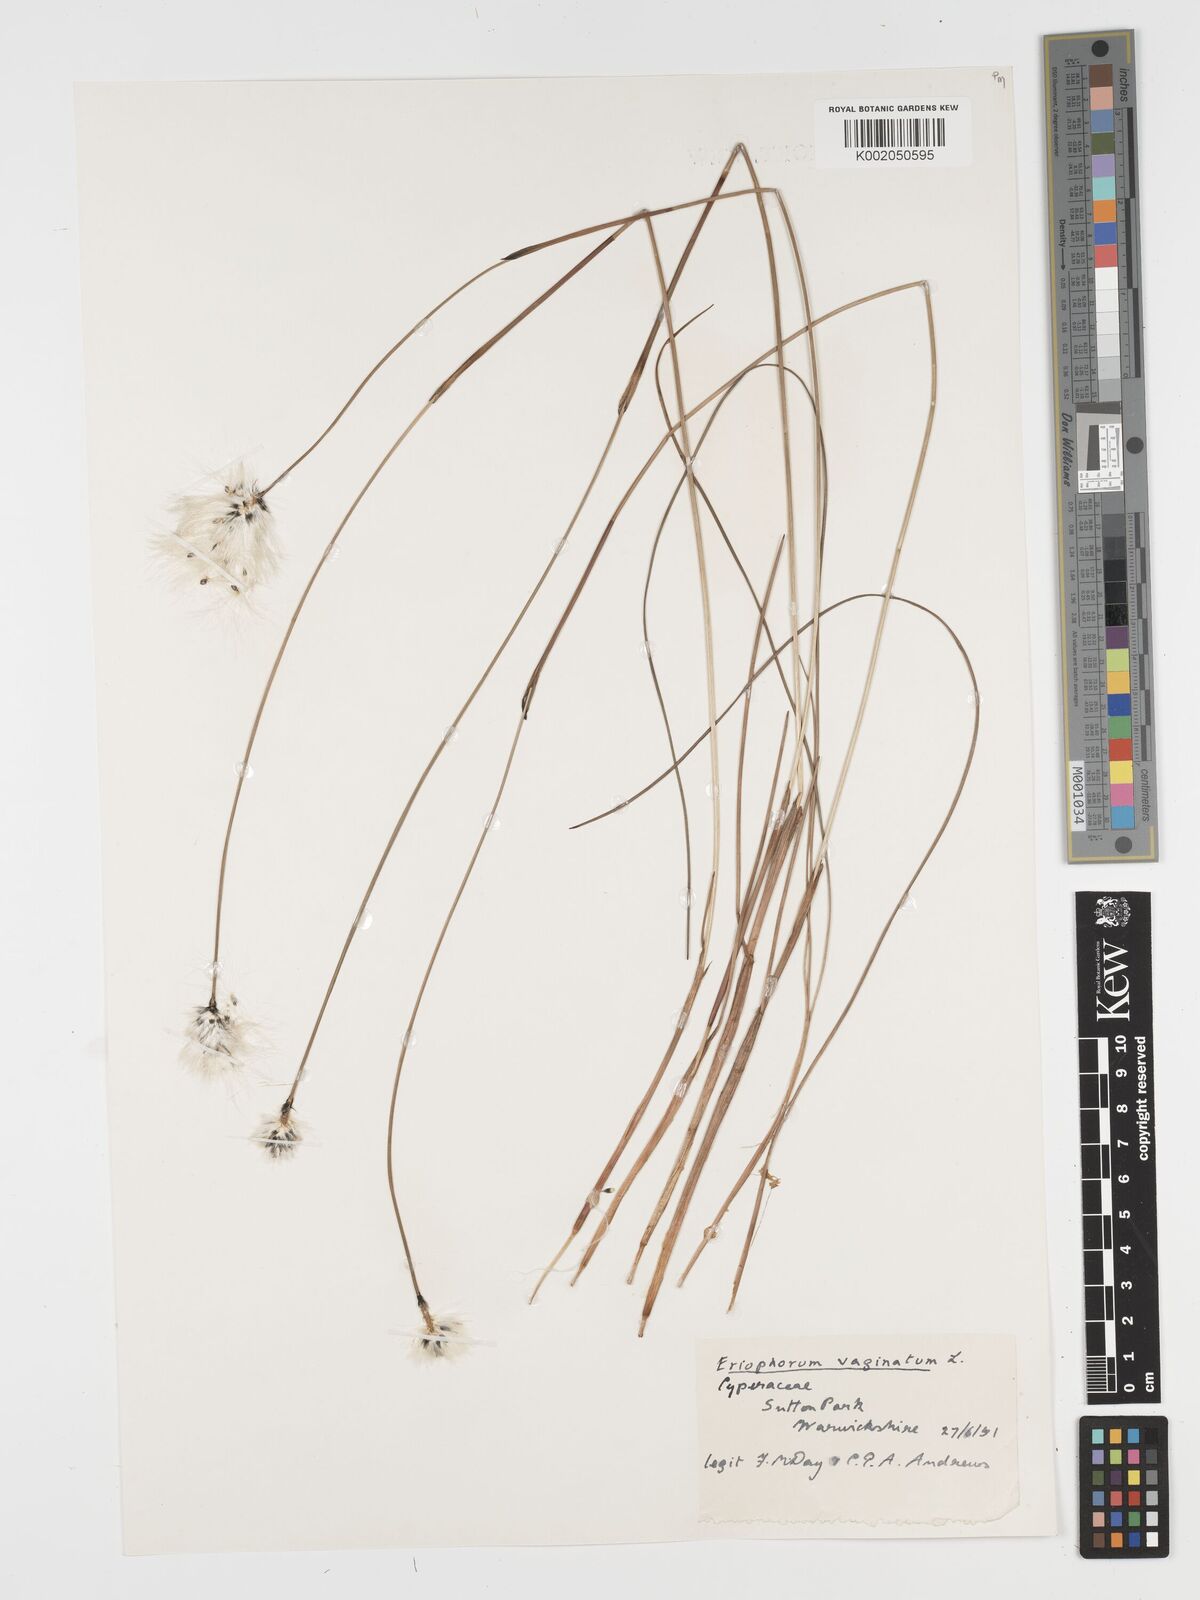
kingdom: Plantae
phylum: Tracheophyta
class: Liliopsida
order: Poales
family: Cyperaceae
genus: Eriophorum
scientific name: Eriophorum vaginatum
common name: Hare's-tail cottongrass
